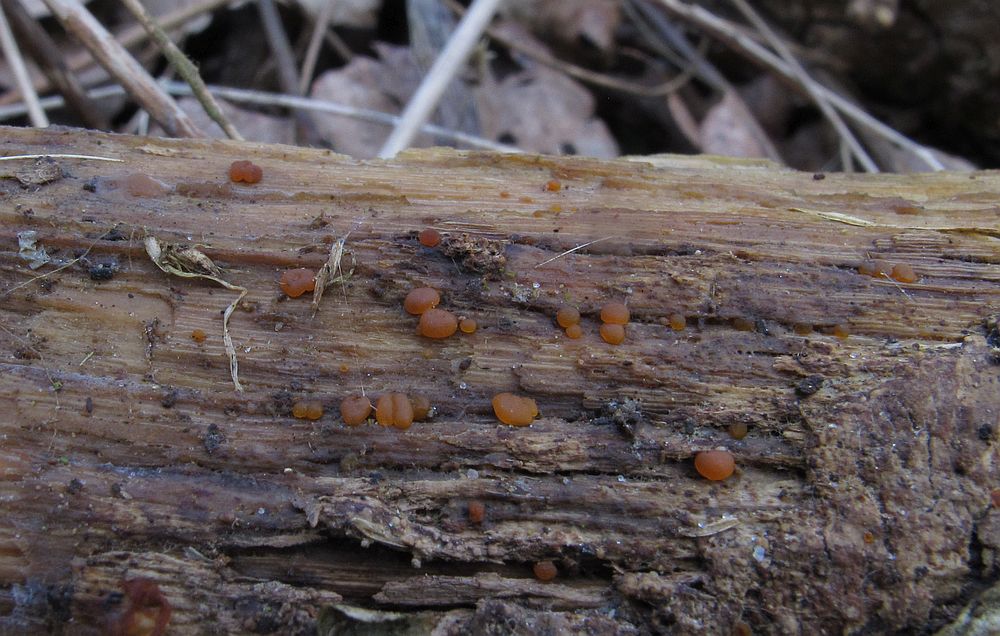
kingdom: Fungi
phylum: Basidiomycota
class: Dacrymycetes
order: Dacrymycetales
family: Dacrymycetaceae
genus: Dacrymyces
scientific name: Dacrymyces lacrymalis
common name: rynket tåresvamp
